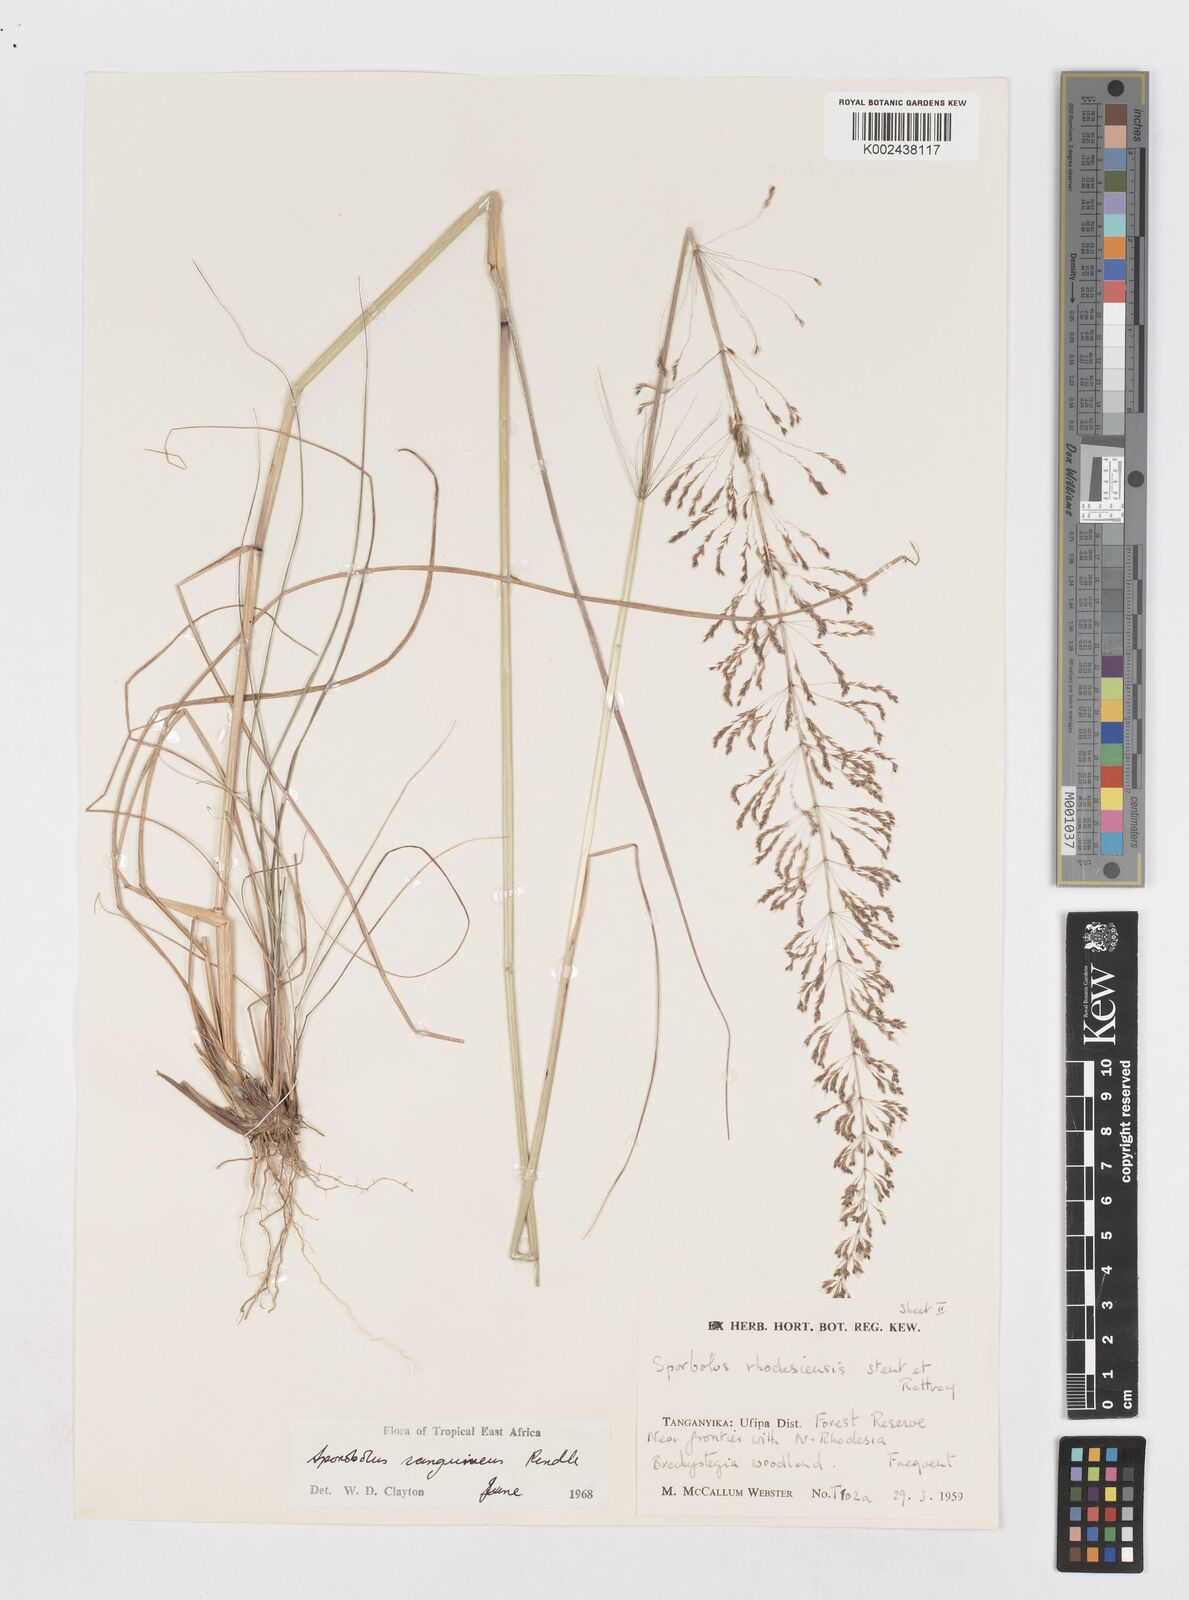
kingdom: Plantae
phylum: Tracheophyta
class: Liliopsida
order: Poales
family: Poaceae
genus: Sporobolus
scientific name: Sporobolus sanguineus
